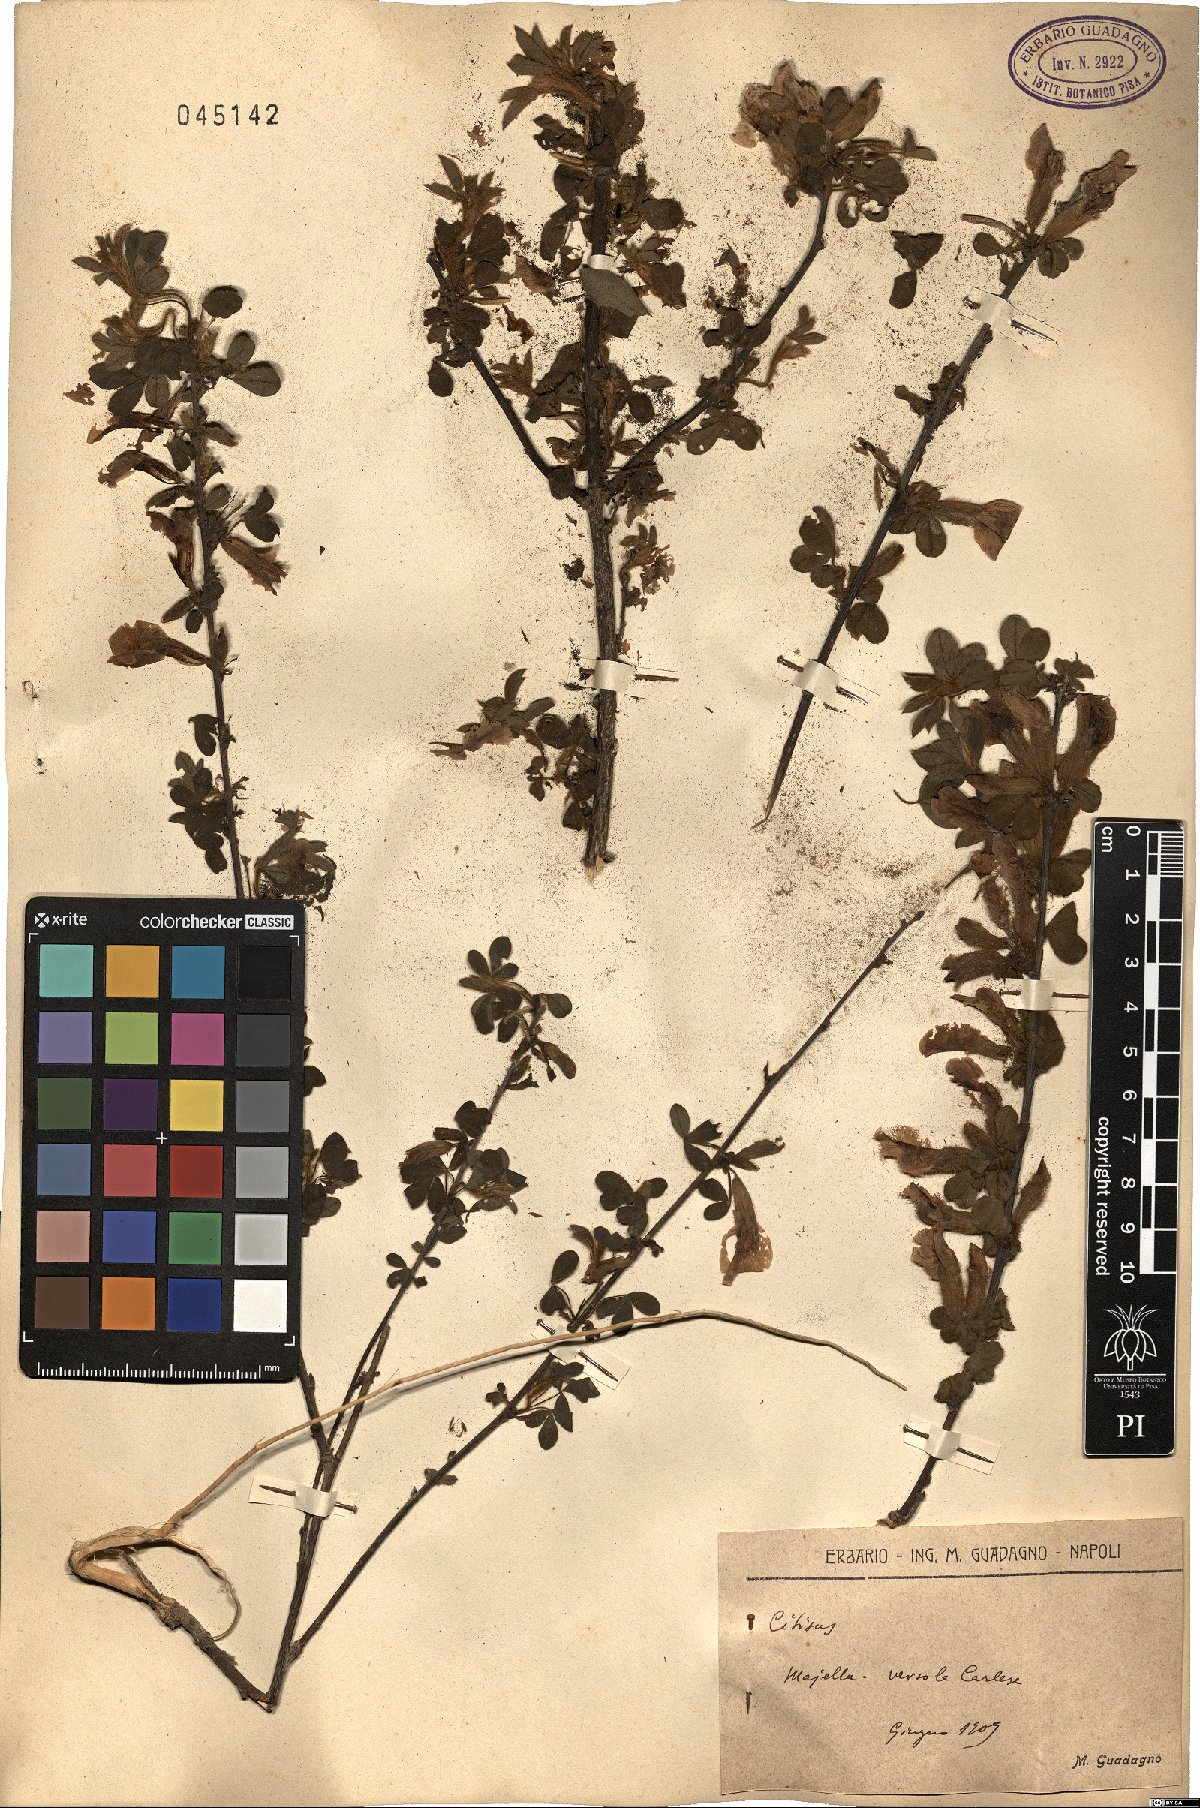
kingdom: Plantae
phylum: Tracheophyta
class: Magnoliopsida
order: Fabales
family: Fabaceae
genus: Cytisus
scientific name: Cytisus
